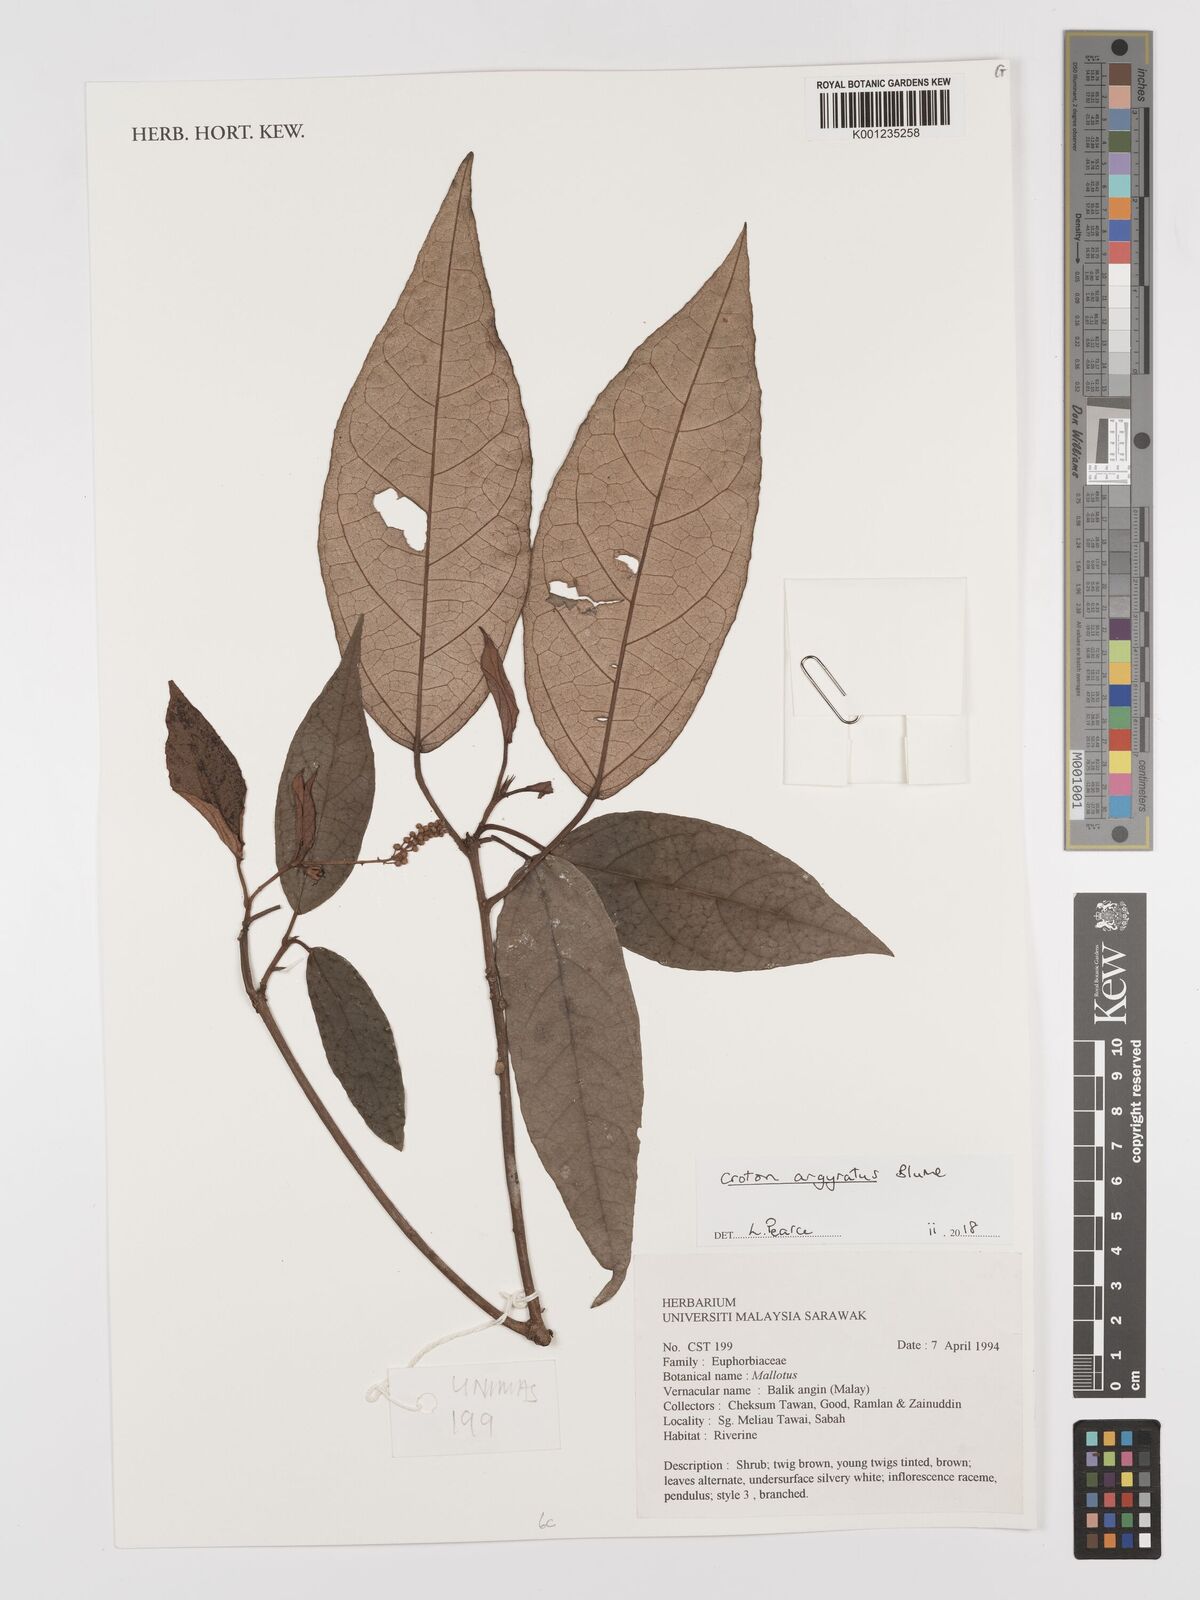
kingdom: Plantae
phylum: Tracheophyta
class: Magnoliopsida
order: Malpighiales
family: Euphorbiaceae
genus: Croton
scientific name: Croton argyratus
